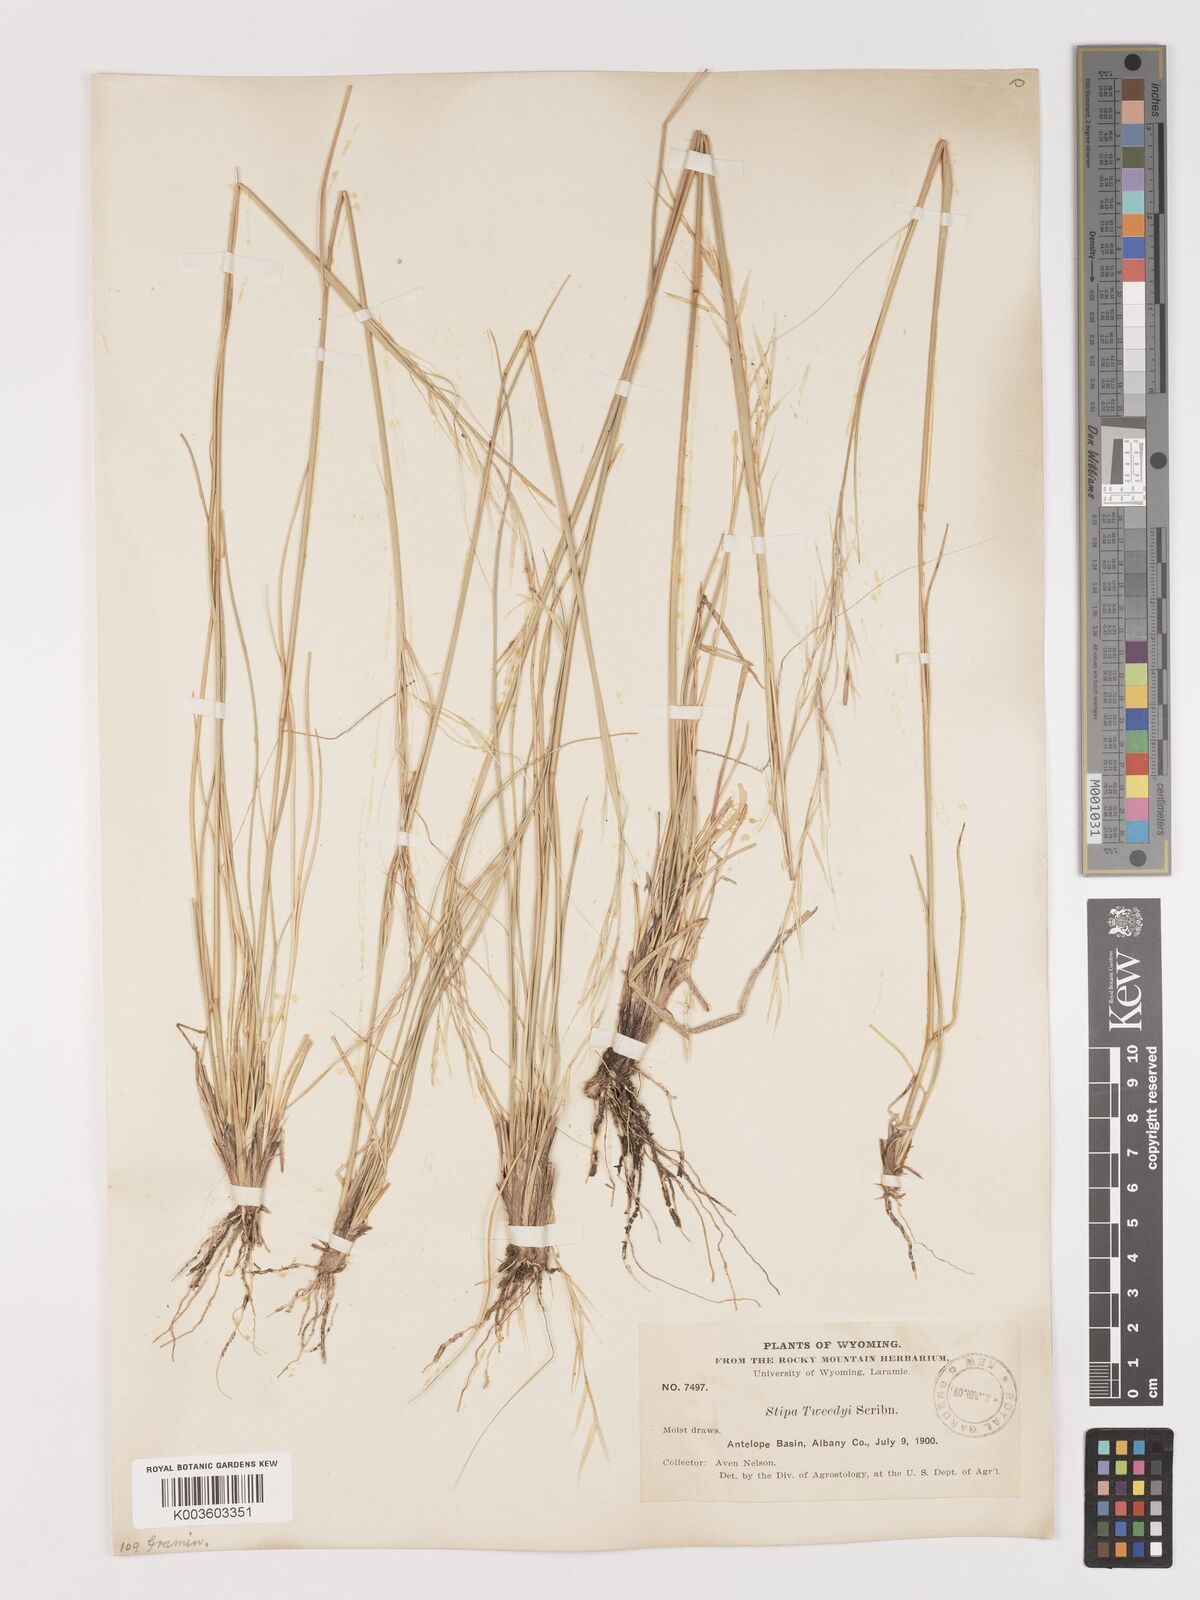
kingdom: Plantae
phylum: Tracheophyta
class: Liliopsida
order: Poales
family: Poaceae
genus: Hesperostipa
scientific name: Hesperostipa comata
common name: Needle-and-thread grass
